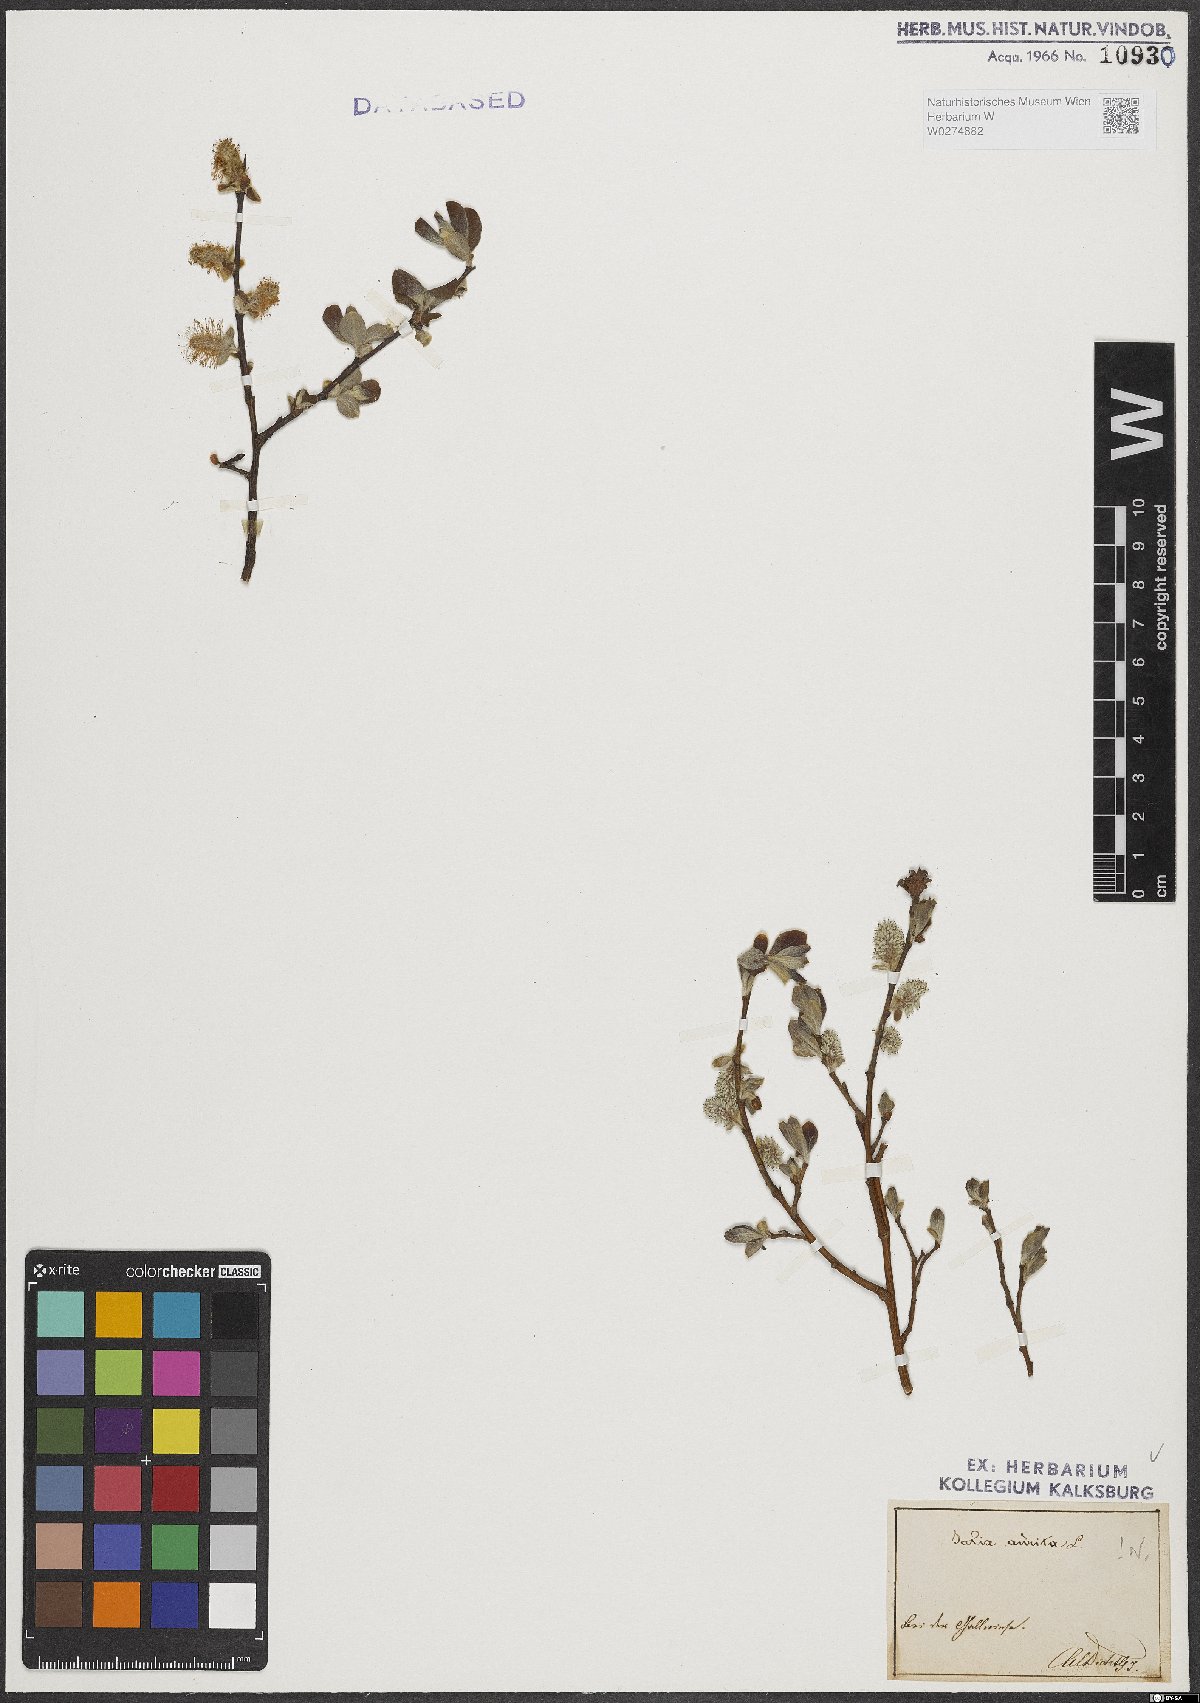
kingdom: Plantae
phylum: Tracheophyta
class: Magnoliopsida
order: Malpighiales
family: Salicaceae
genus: Salix
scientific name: Salix aurita
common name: Eared willow
